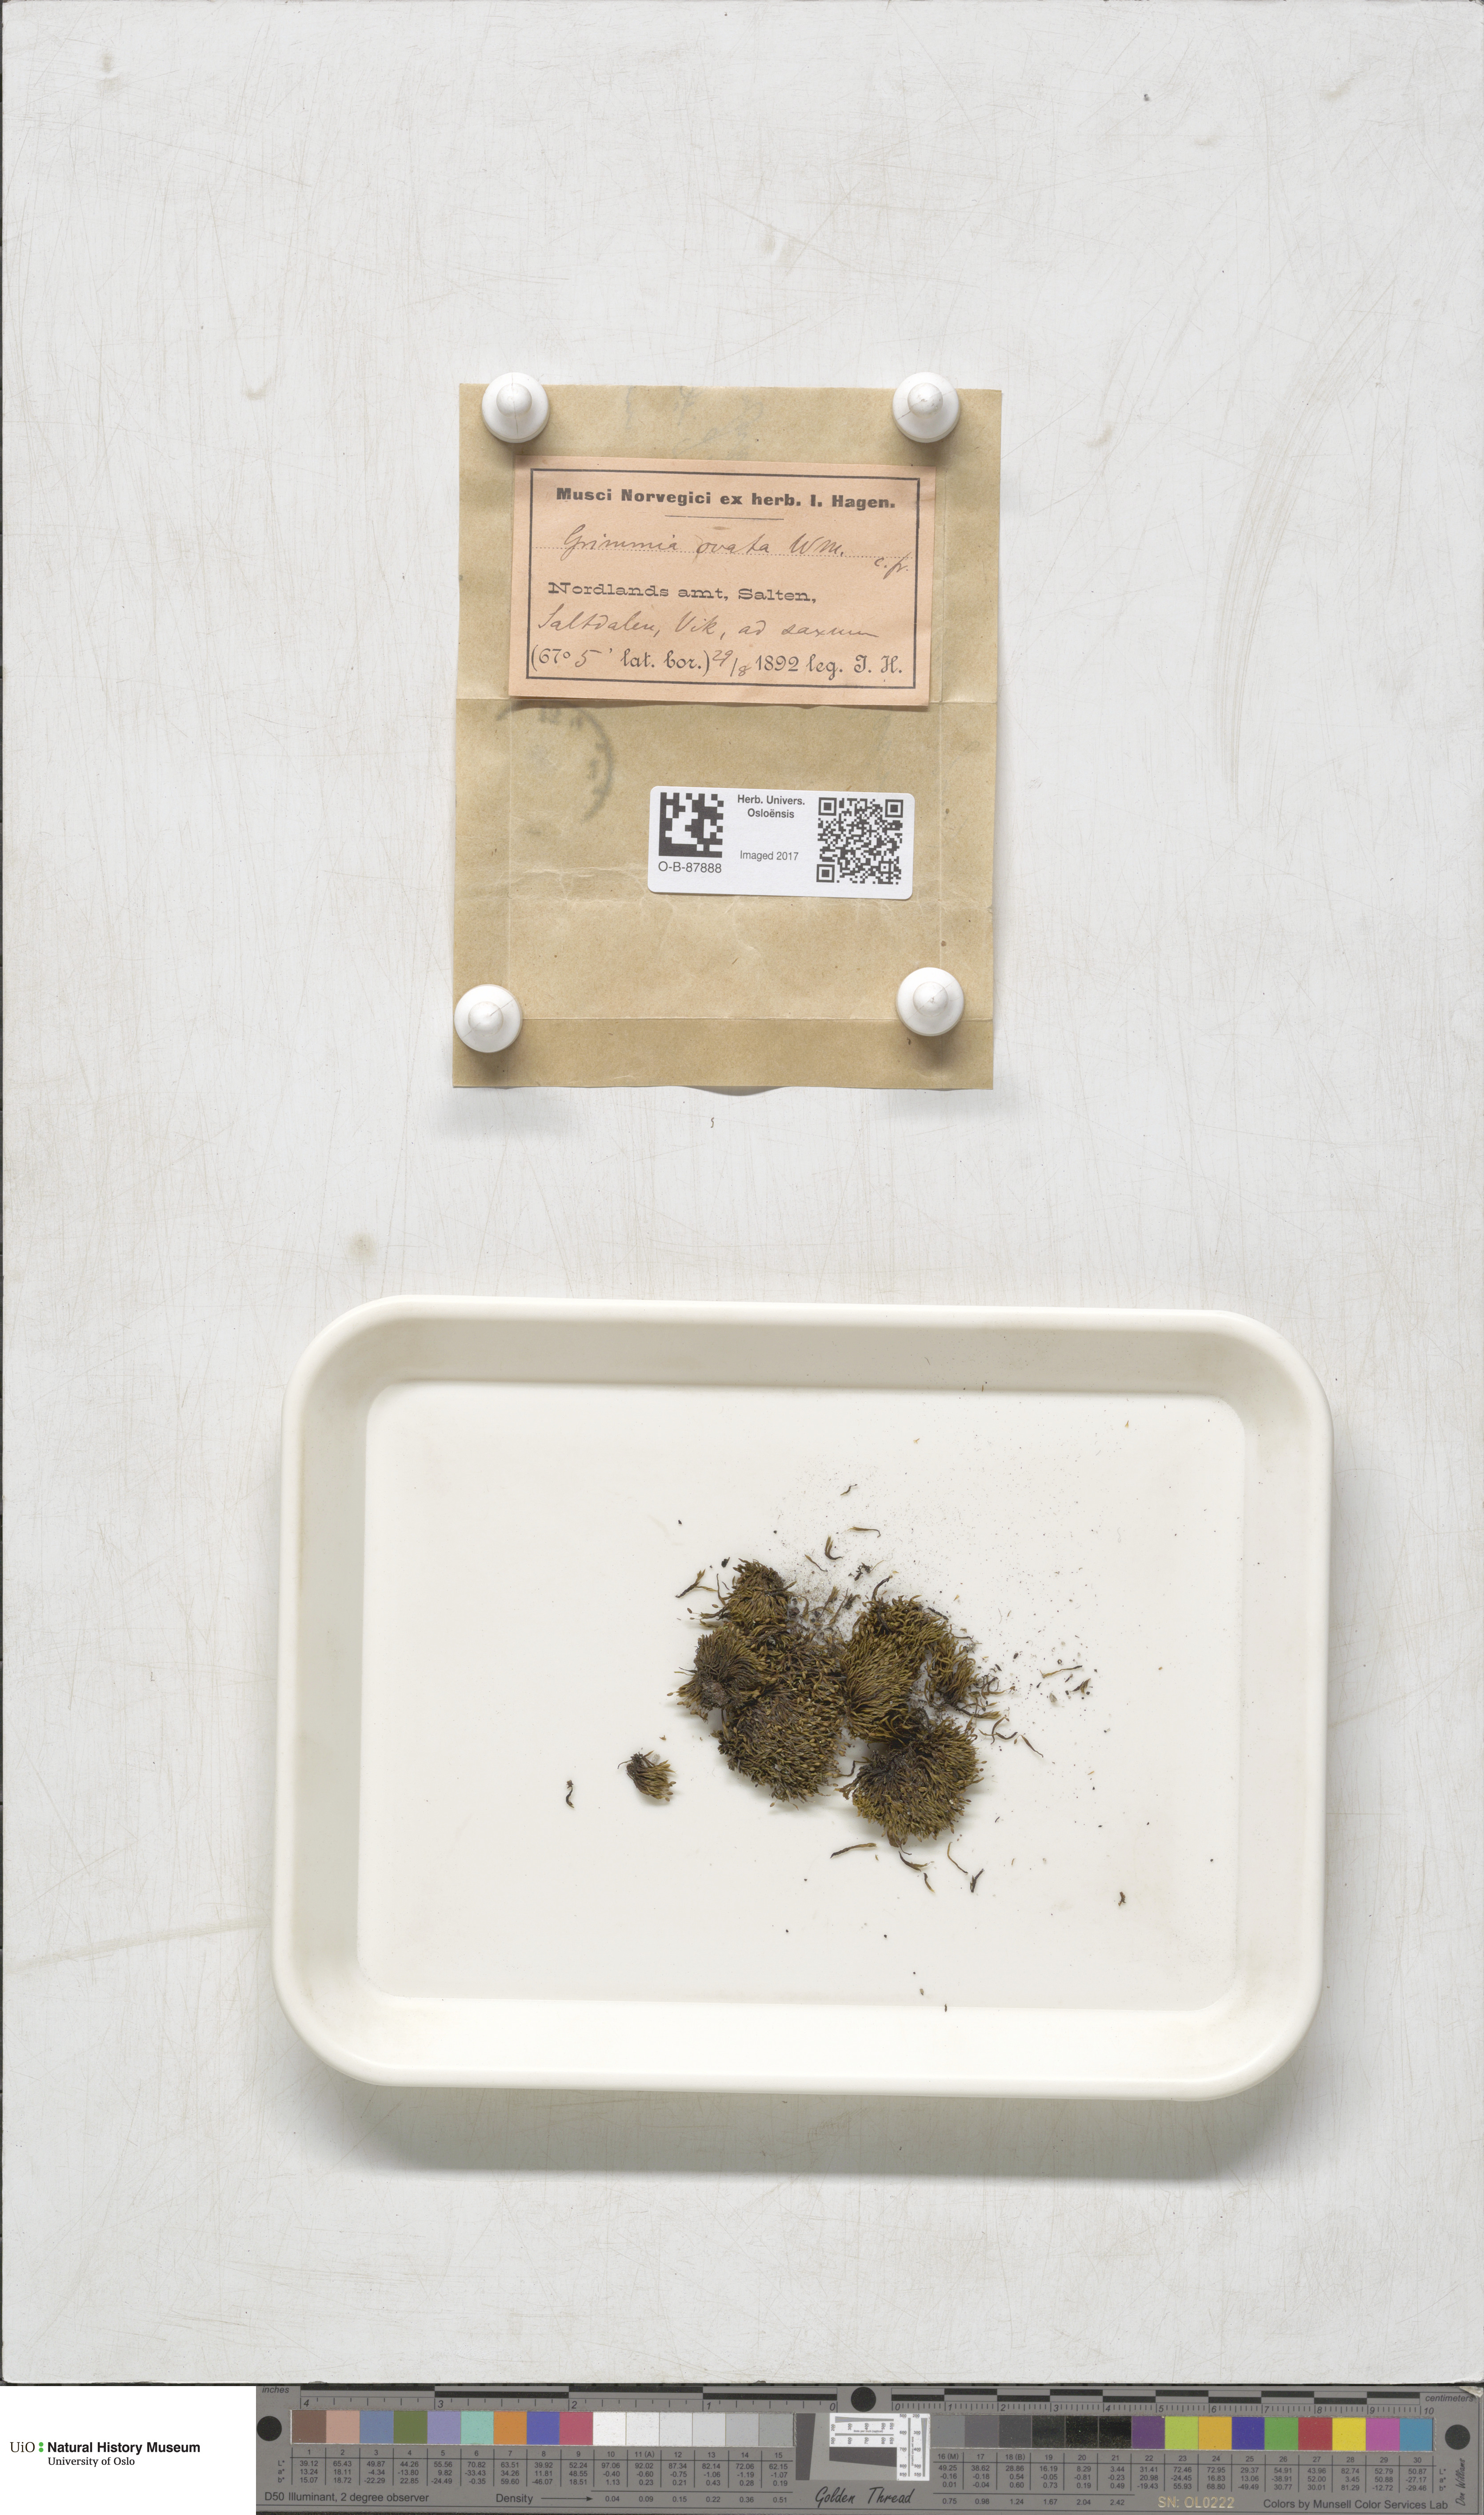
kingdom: Plantae
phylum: Bryophyta
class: Bryopsida
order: Grimmiales
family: Grimmiaceae
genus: Grimmia
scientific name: Grimmia ovalis
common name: Oval grimmia
